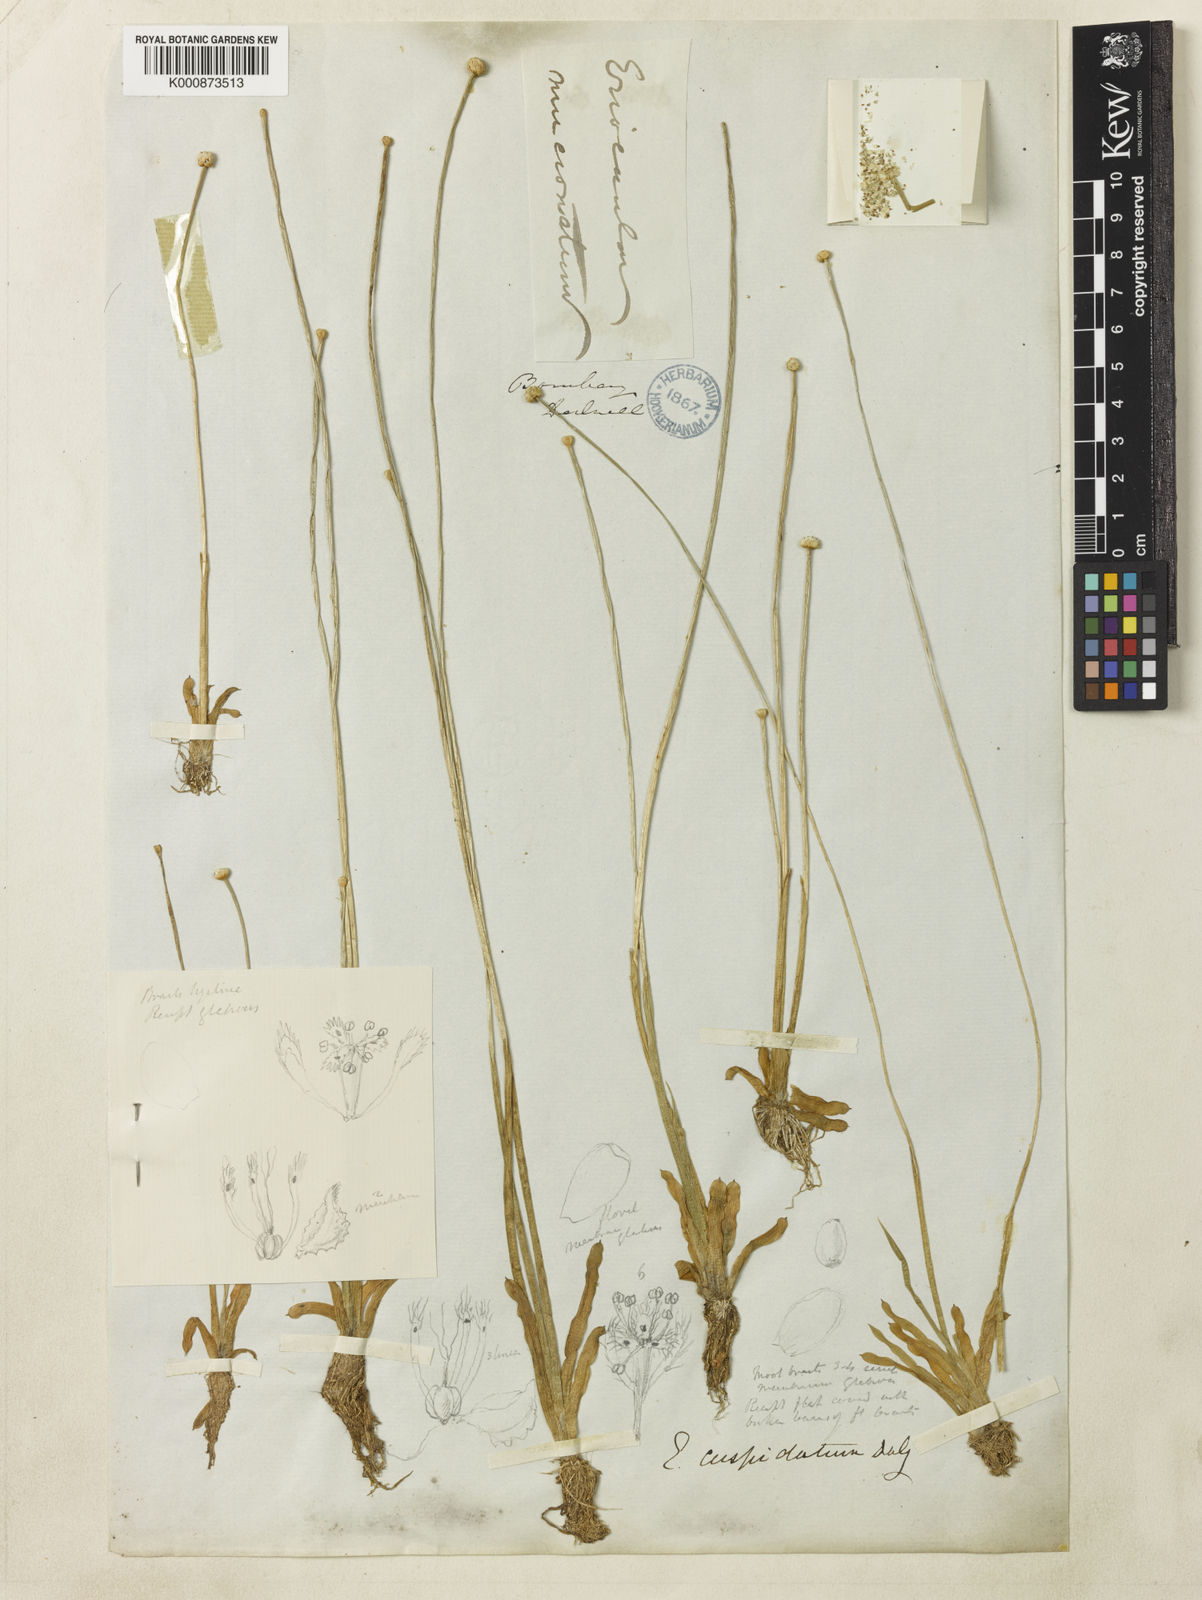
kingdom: Plantae
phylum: Tracheophyta
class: Liliopsida
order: Poales
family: Eriocaulaceae
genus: Eriocaulon
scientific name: Eriocaulon cuspidatum
